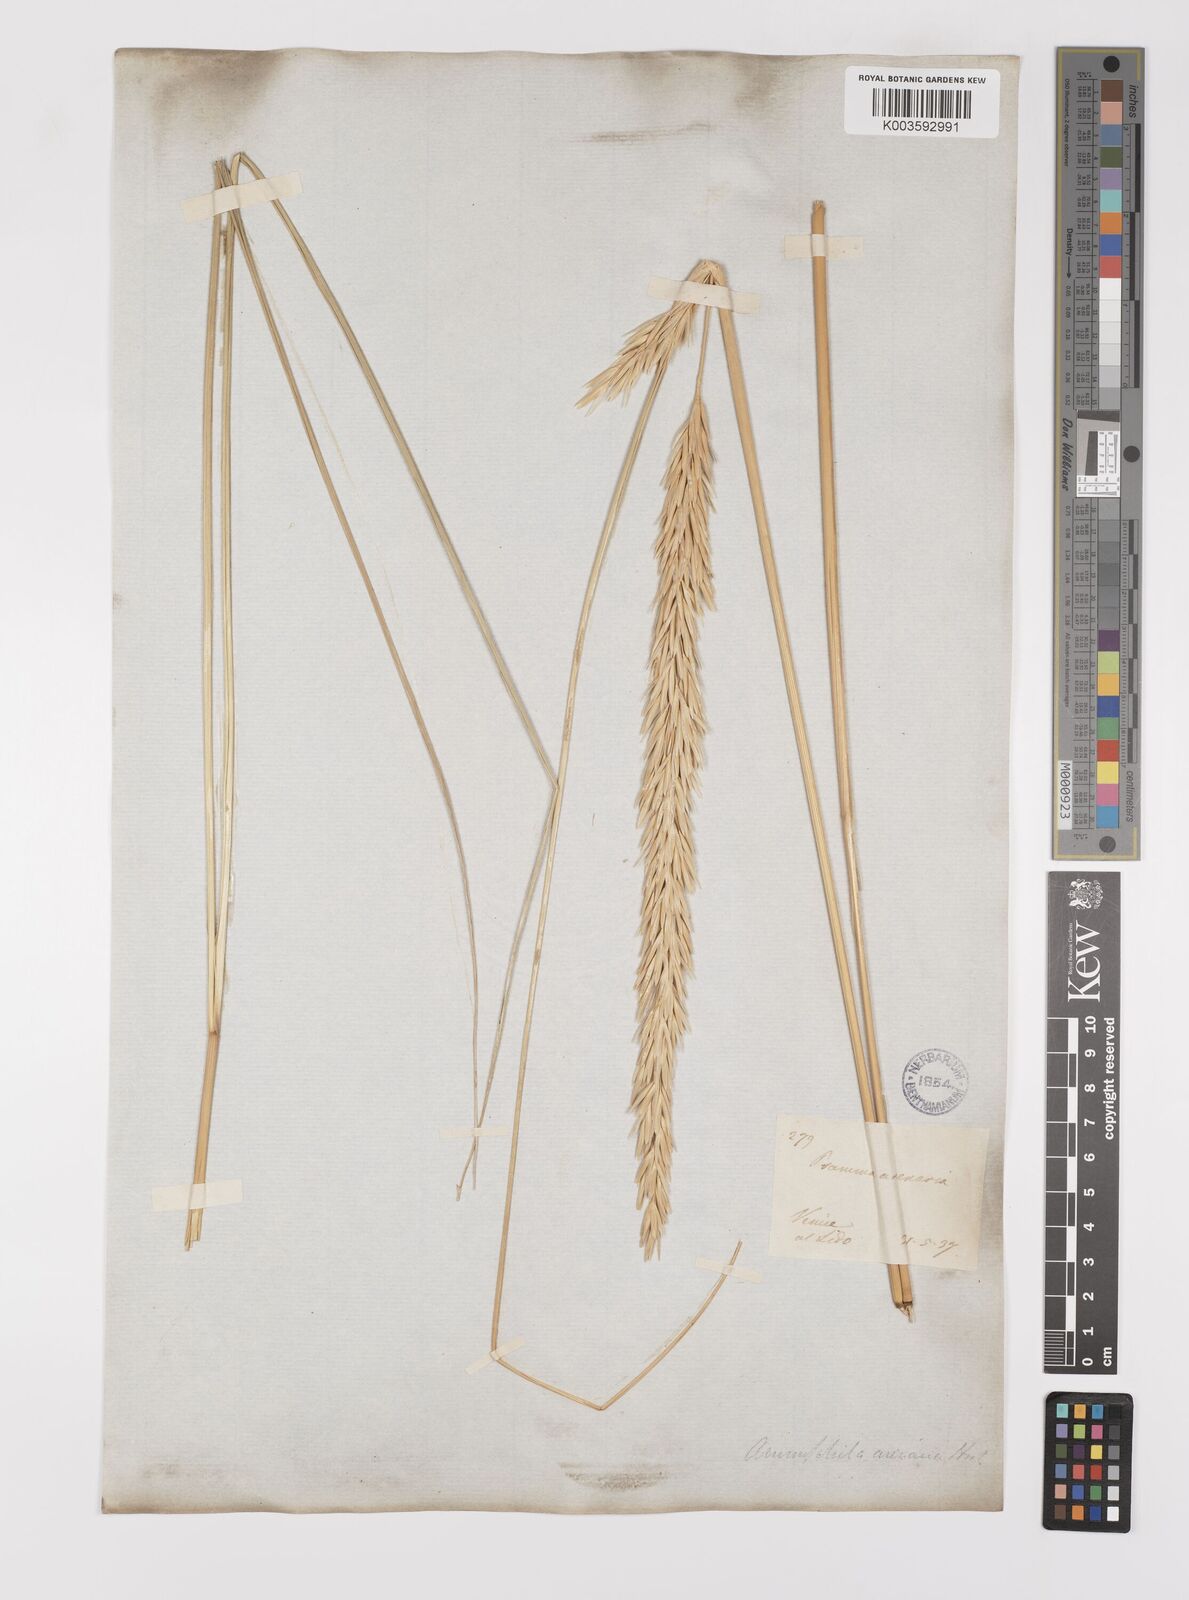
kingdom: Plantae
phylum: Tracheophyta
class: Liliopsida
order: Poales
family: Poaceae
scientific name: Poaceae
